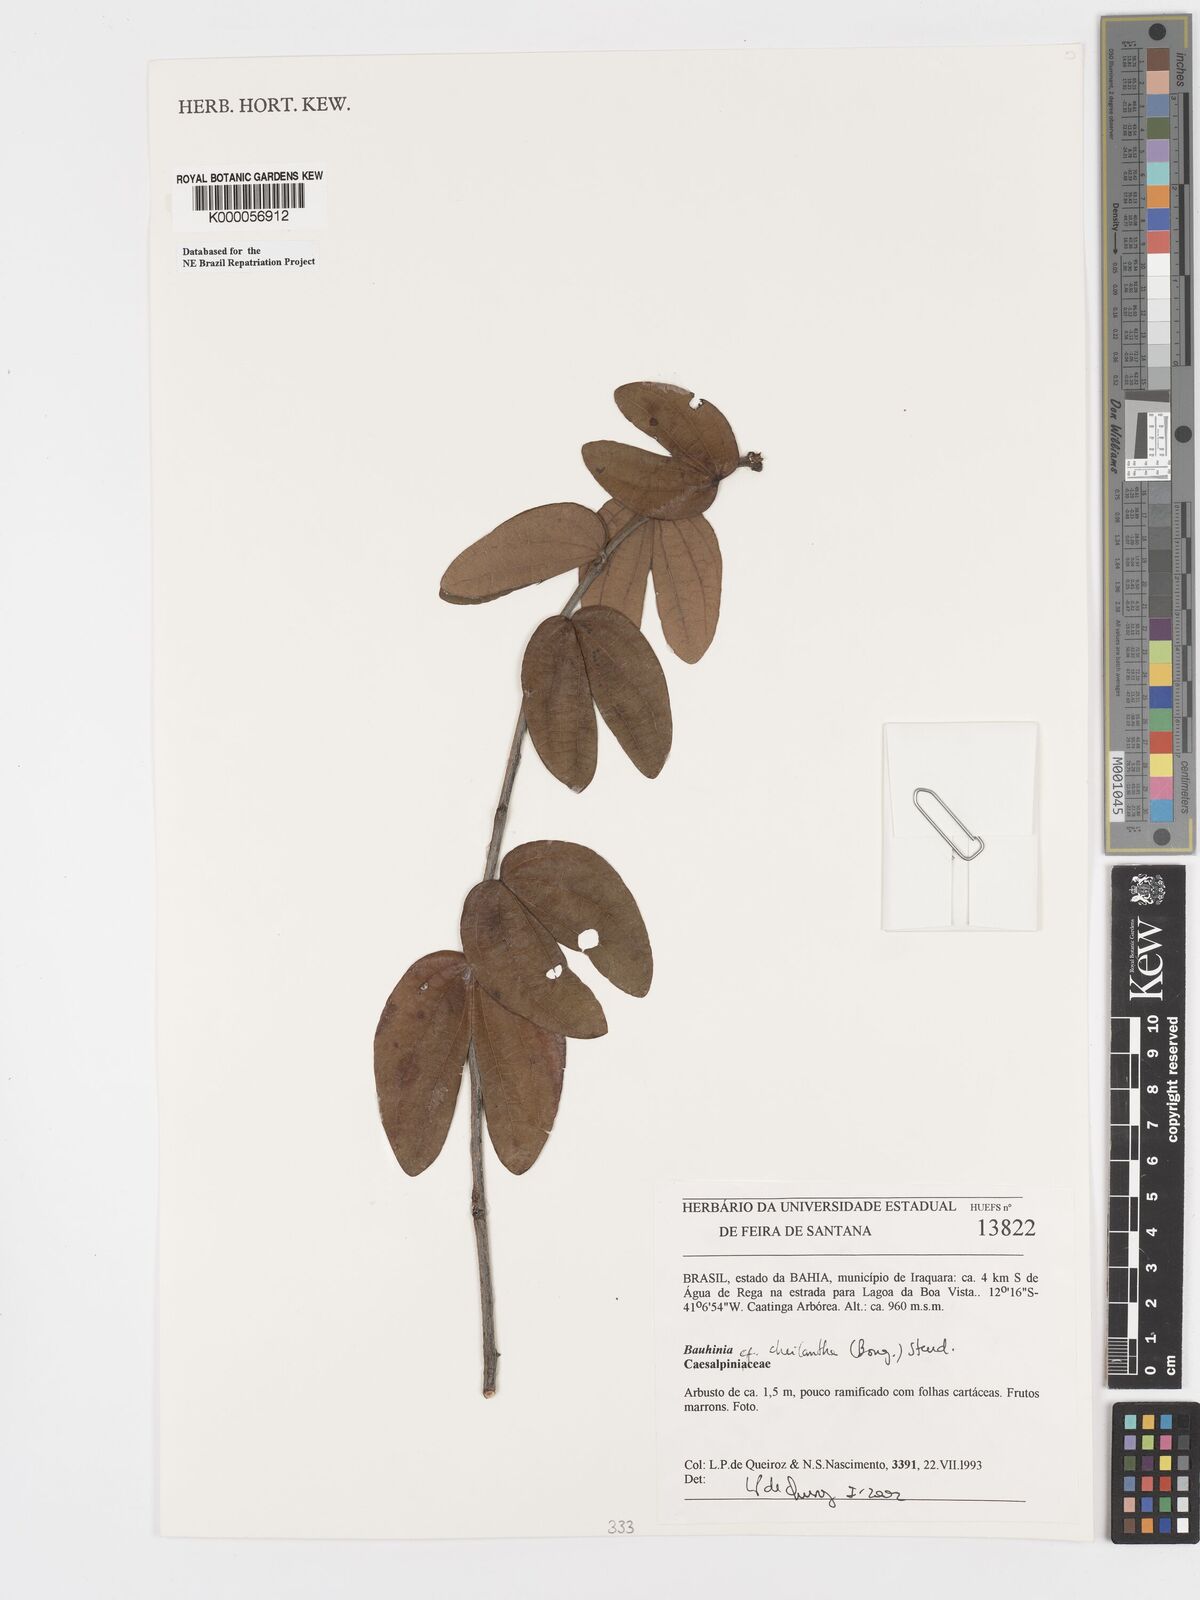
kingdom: Plantae
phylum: Tracheophyta
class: Magnoliopsida
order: Fabales
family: Fabaceae
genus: Bauhinia
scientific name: Bauhinia cheilantha
